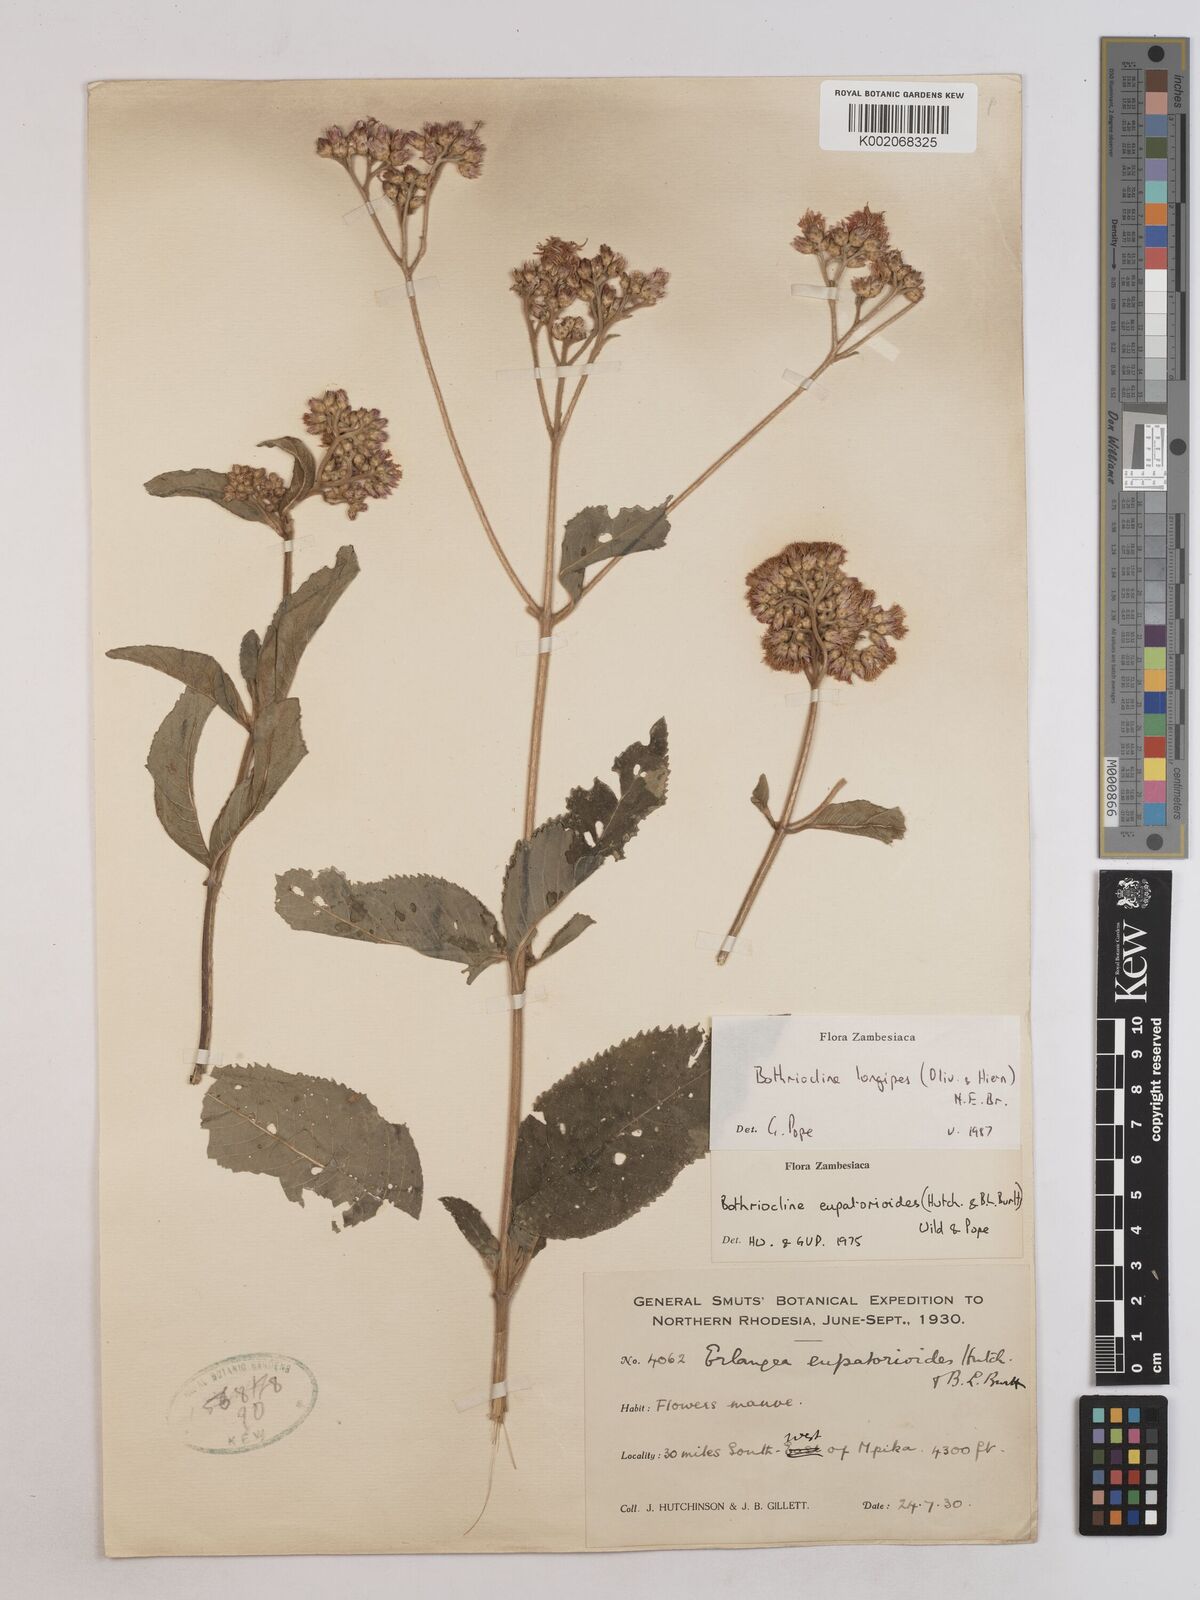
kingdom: Plantae
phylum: Tracheophyta
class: Magnoliopsida
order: Asterales
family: Asteraceae
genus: Bothriocline
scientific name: Bothriocline longipes
